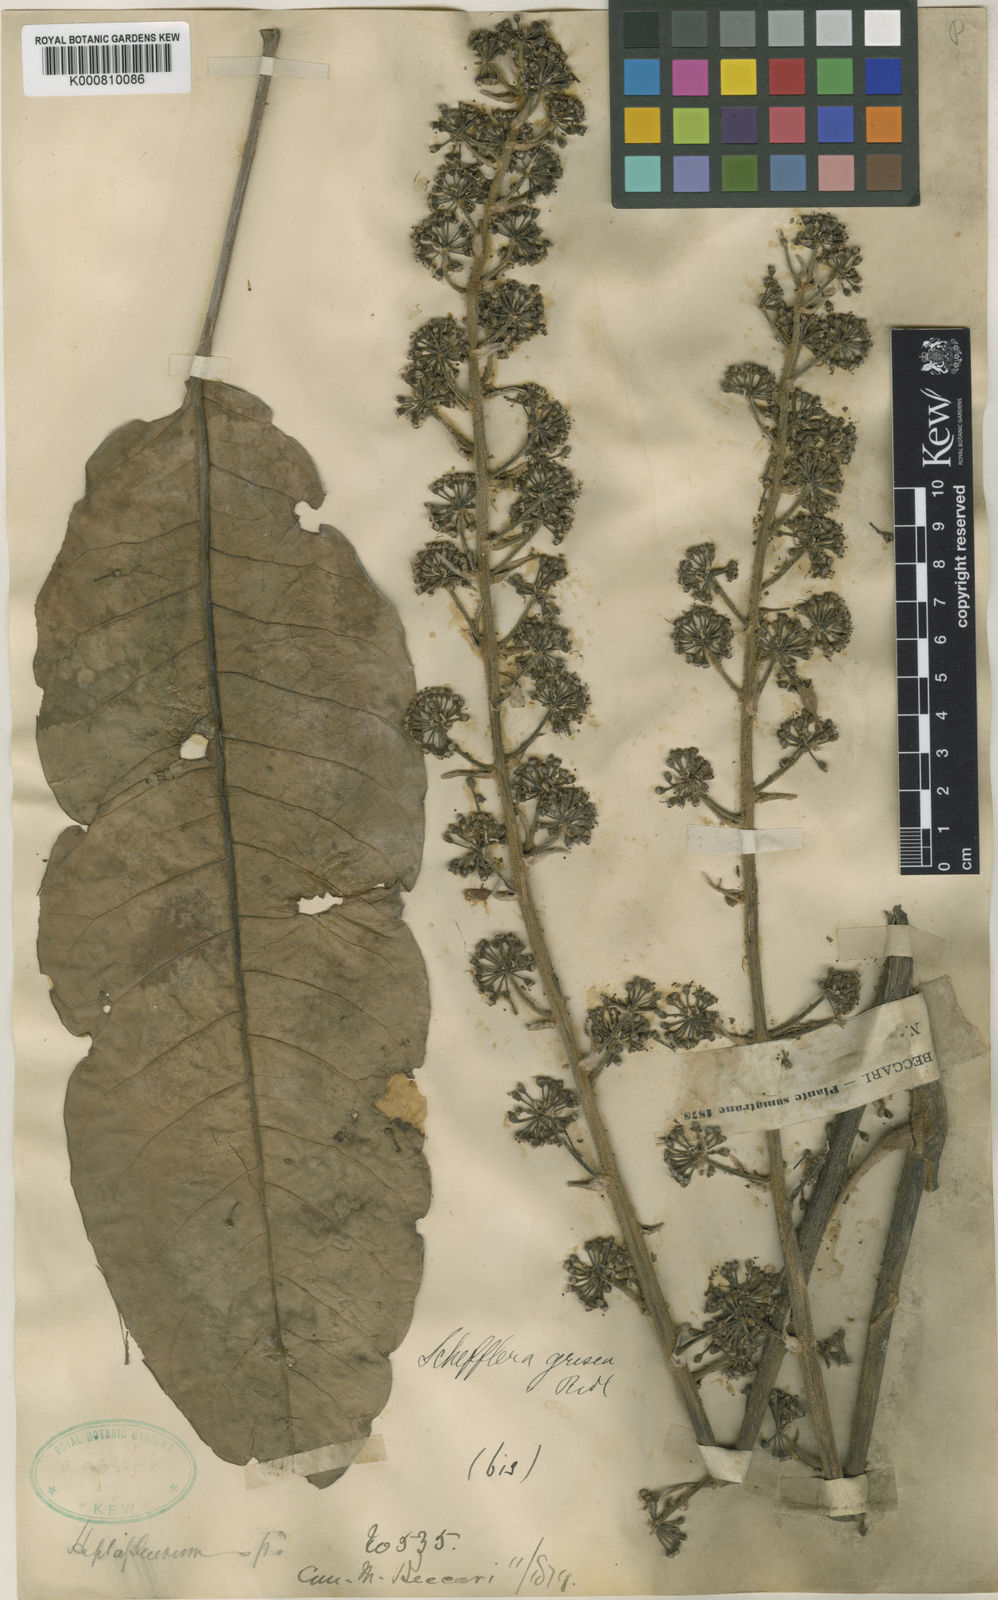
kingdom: Plantae
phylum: Tracheophyta
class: Magnoliopsida
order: Apiales
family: Araliaceae
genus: Heptapleurum
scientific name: Heptapleurum longifolium
